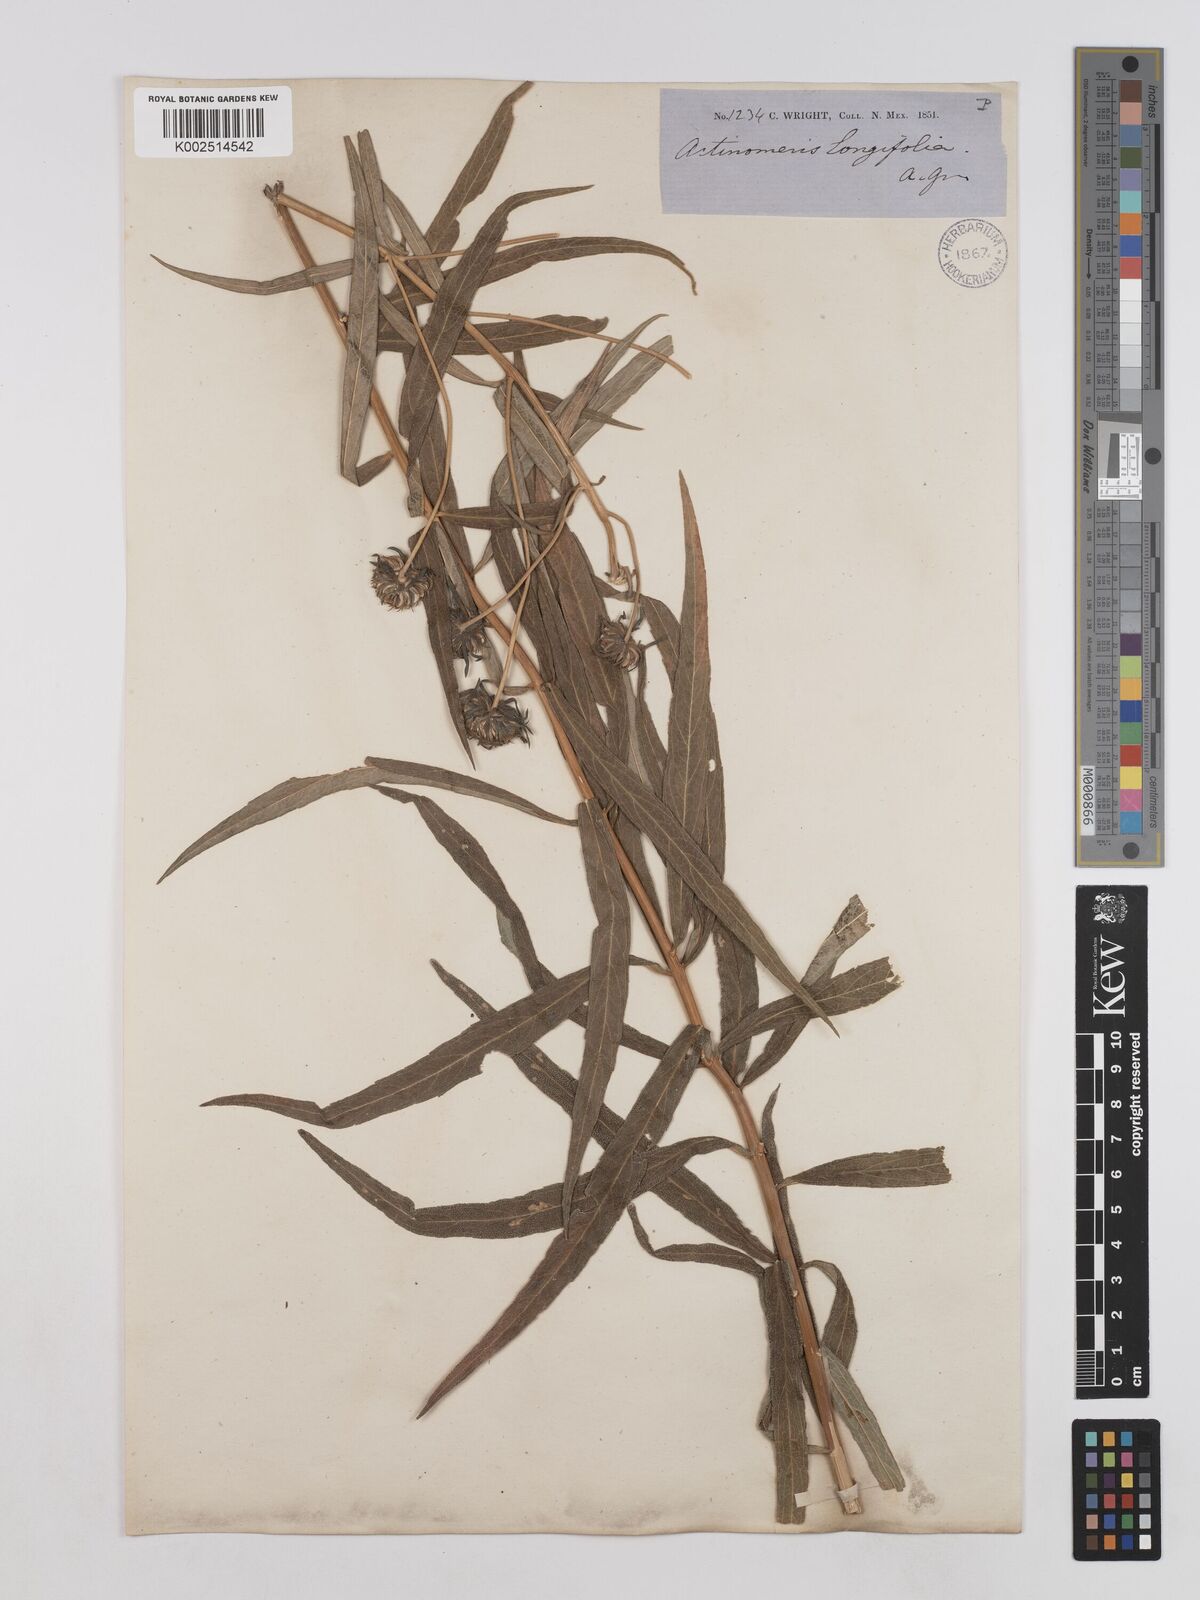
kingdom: Plantae
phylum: Tracheophyta
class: Magnoliopsida
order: Asterales
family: Asteraceae
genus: Verbesina
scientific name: Verbesina longifolia
